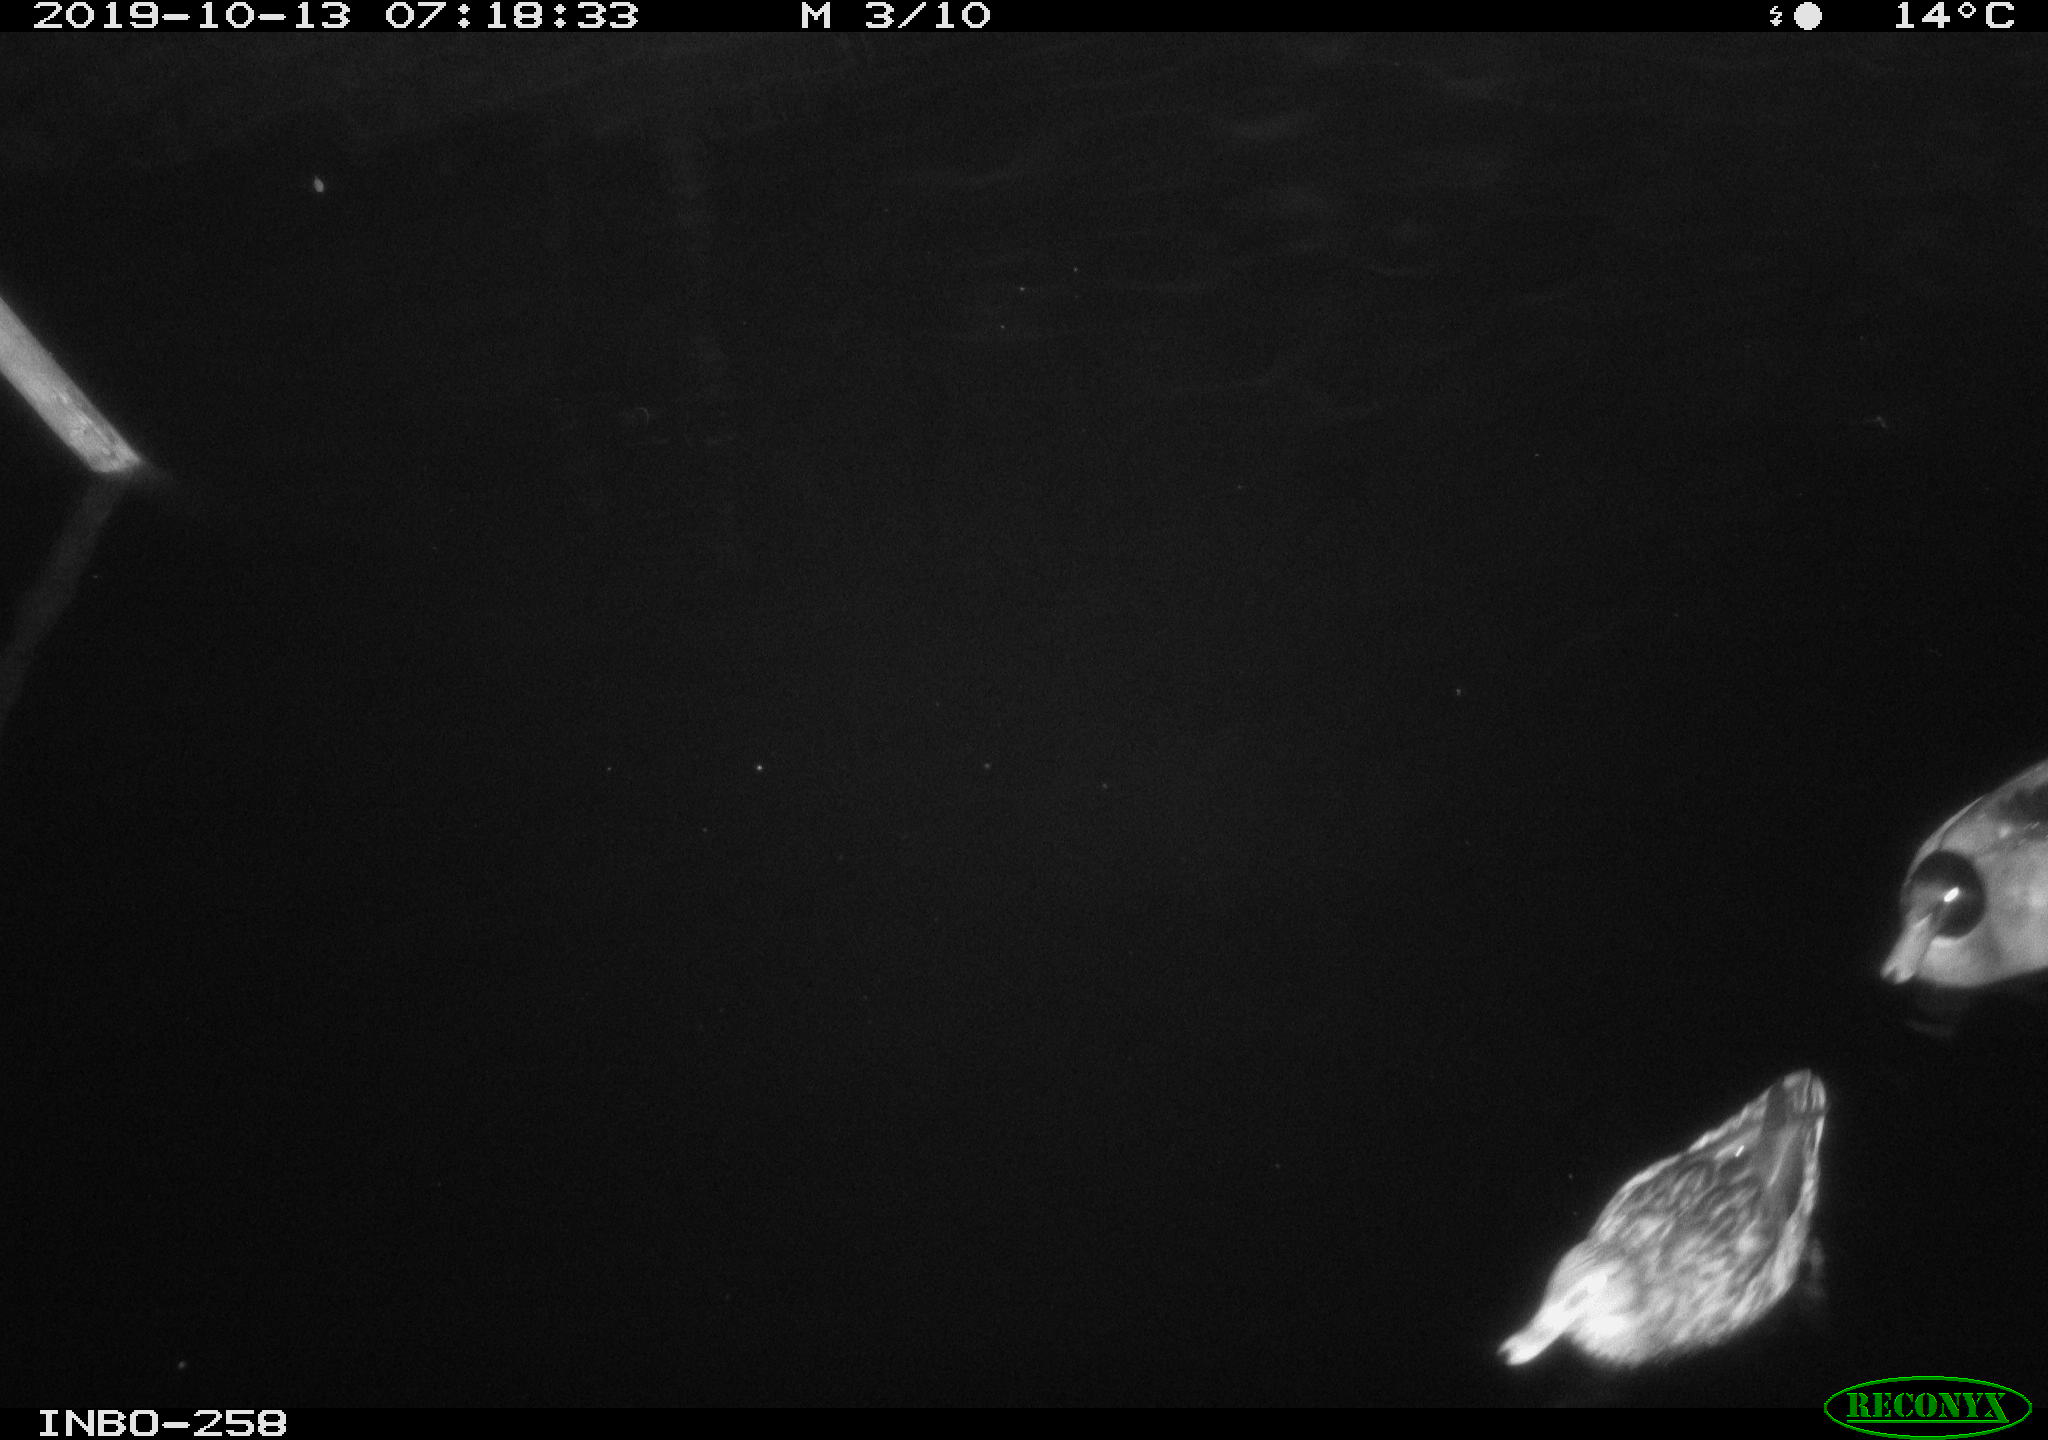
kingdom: Animalia
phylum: Chordata
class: Aves
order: Anseriformes
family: Anatidae
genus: Anas
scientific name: Anas platyrhynchos
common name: Mallard
